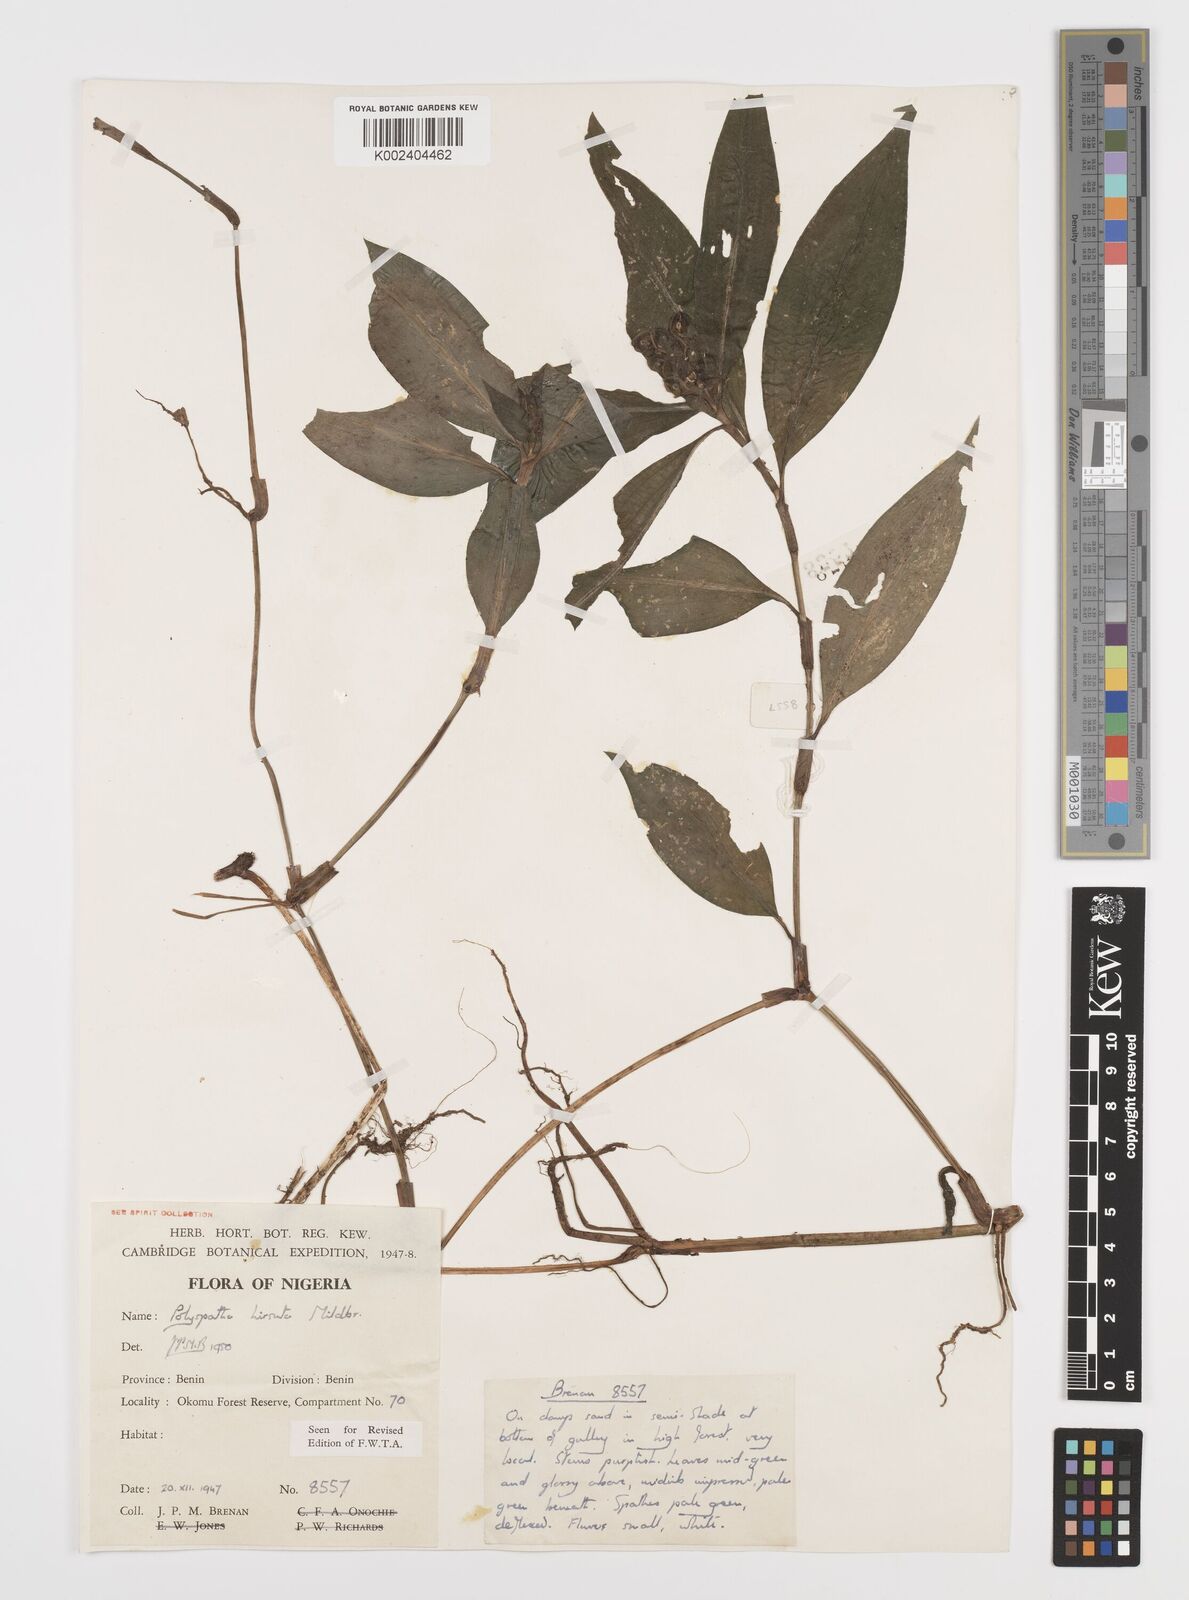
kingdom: Plantae
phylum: Tracheophyta
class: Liliopsida
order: Commelinales
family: Commelinaceae
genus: Polyspatha
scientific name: Polyspatha hirsuta
